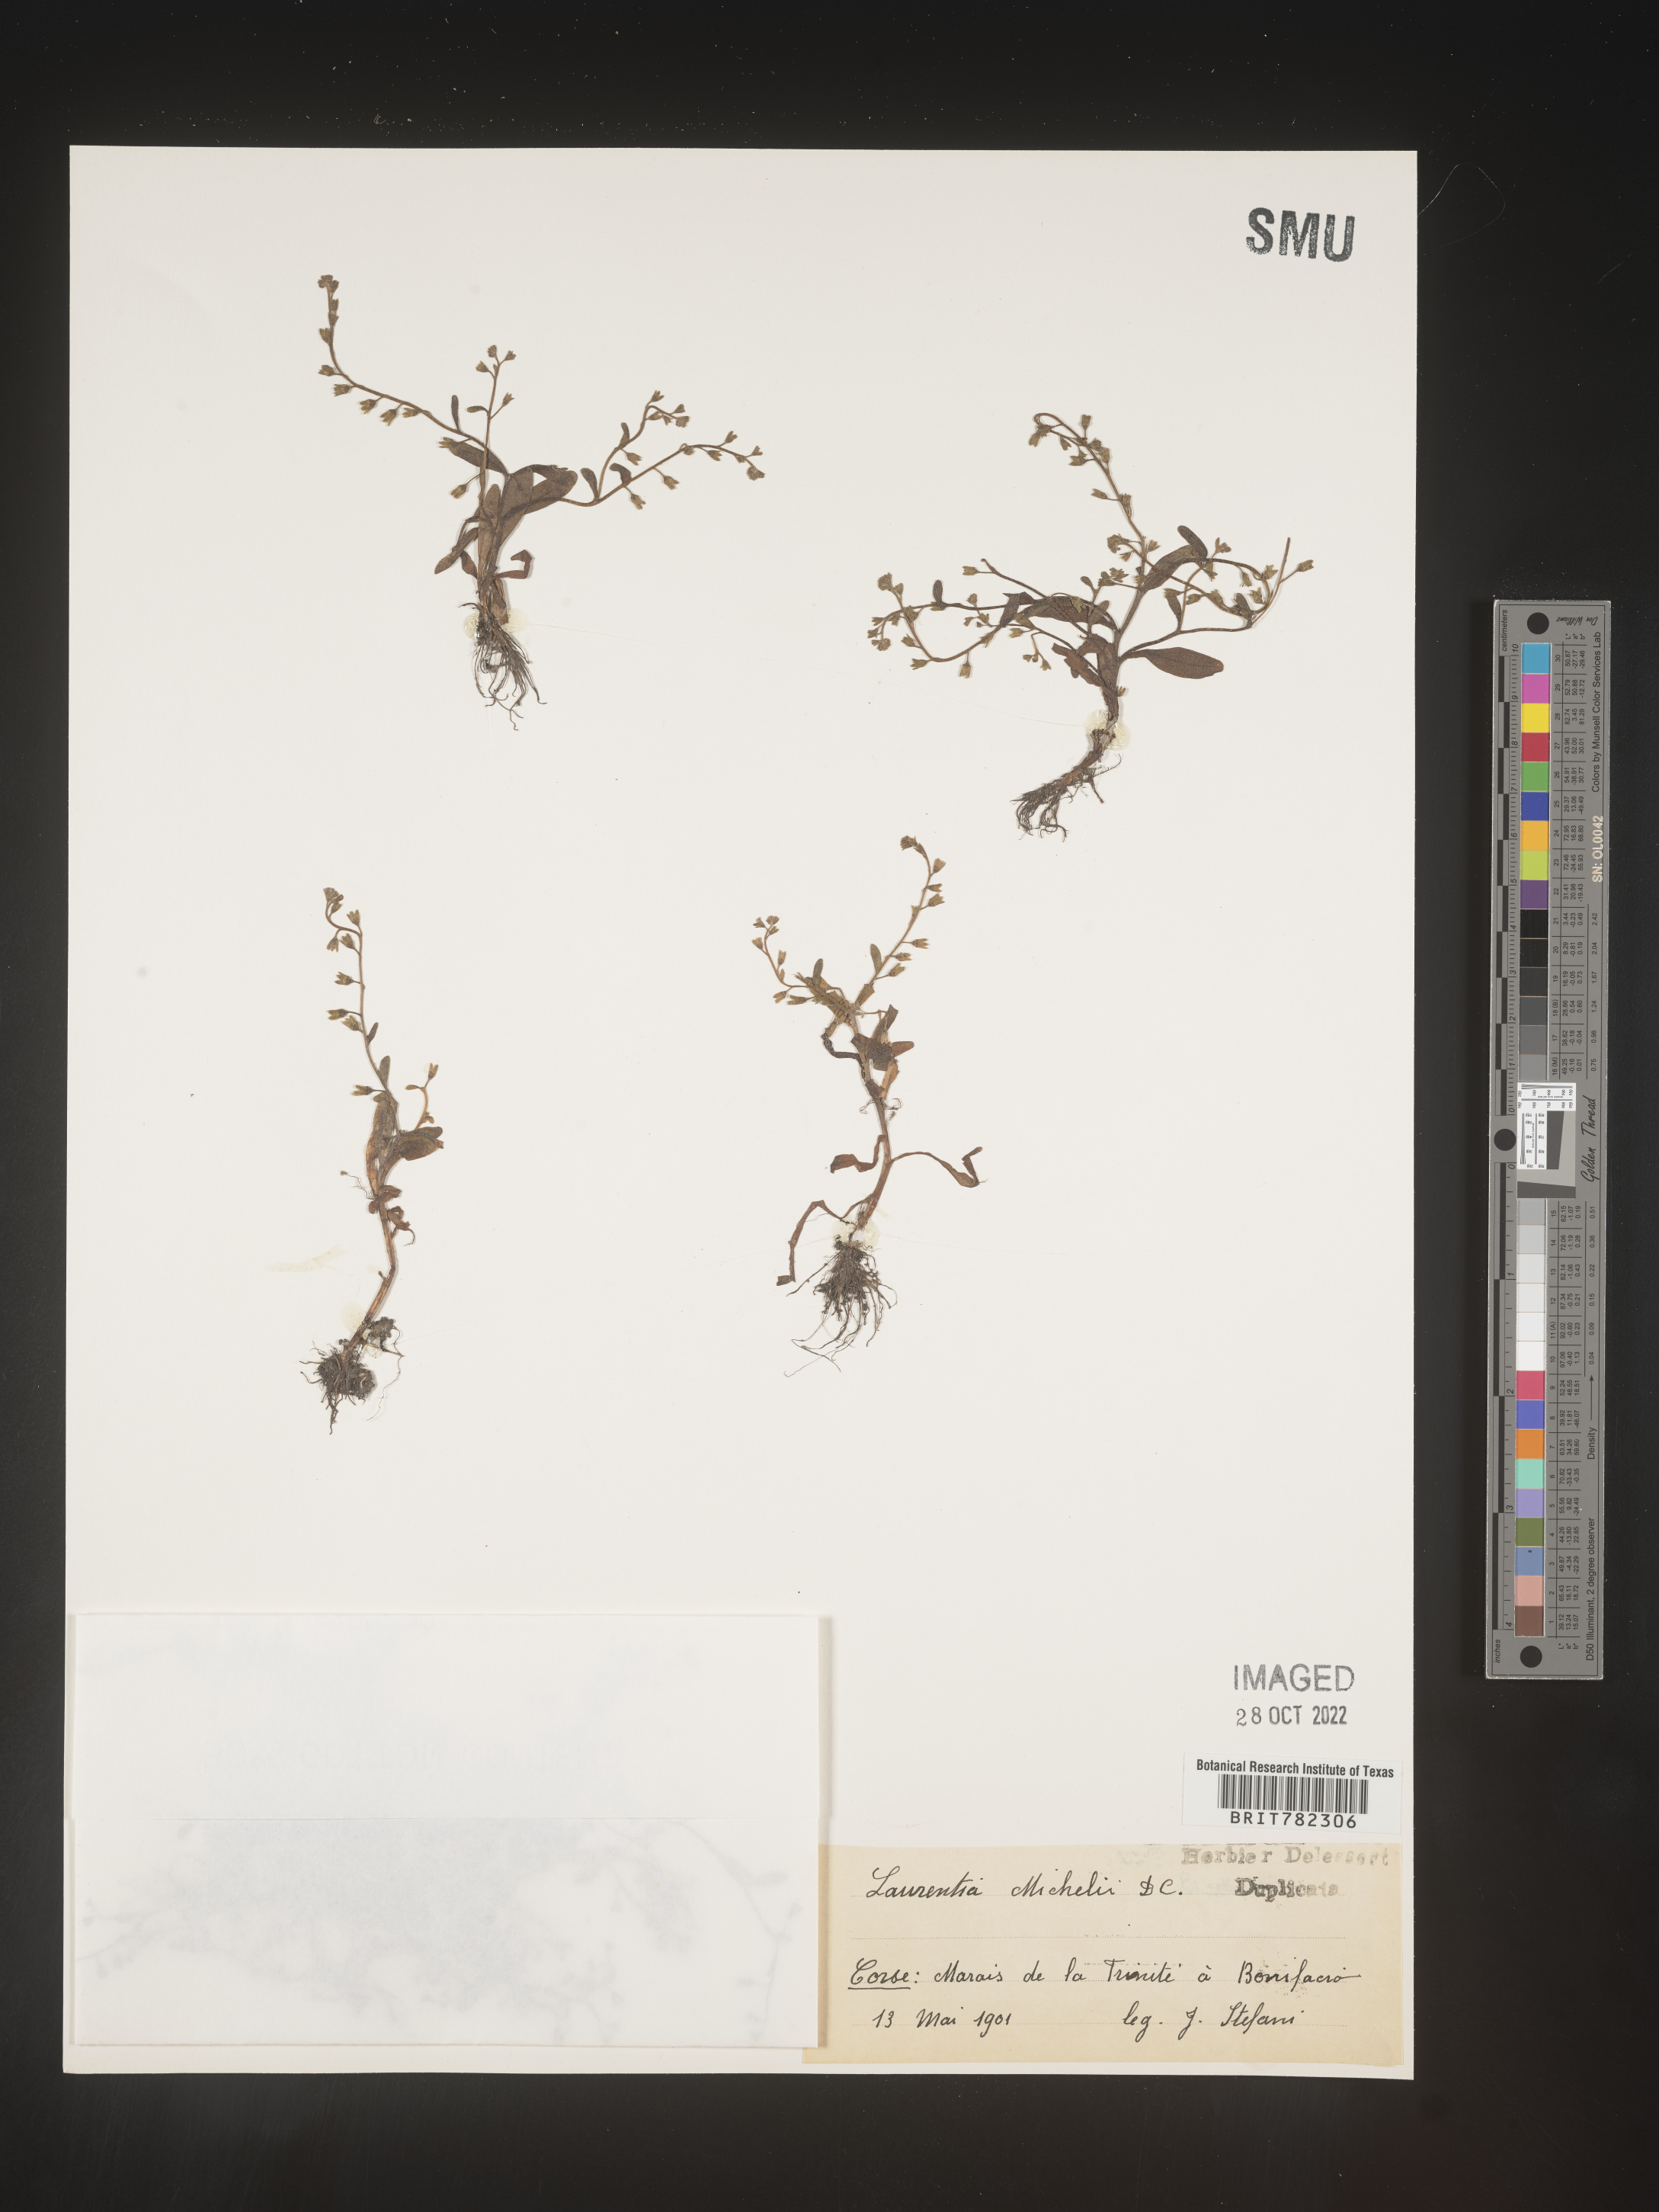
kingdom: Plantae
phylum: Tracheophyta
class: Magnoliopsida
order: Asterales
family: Campanulaceae
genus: Lobelia
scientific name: Lobelia Laurentia michelii
